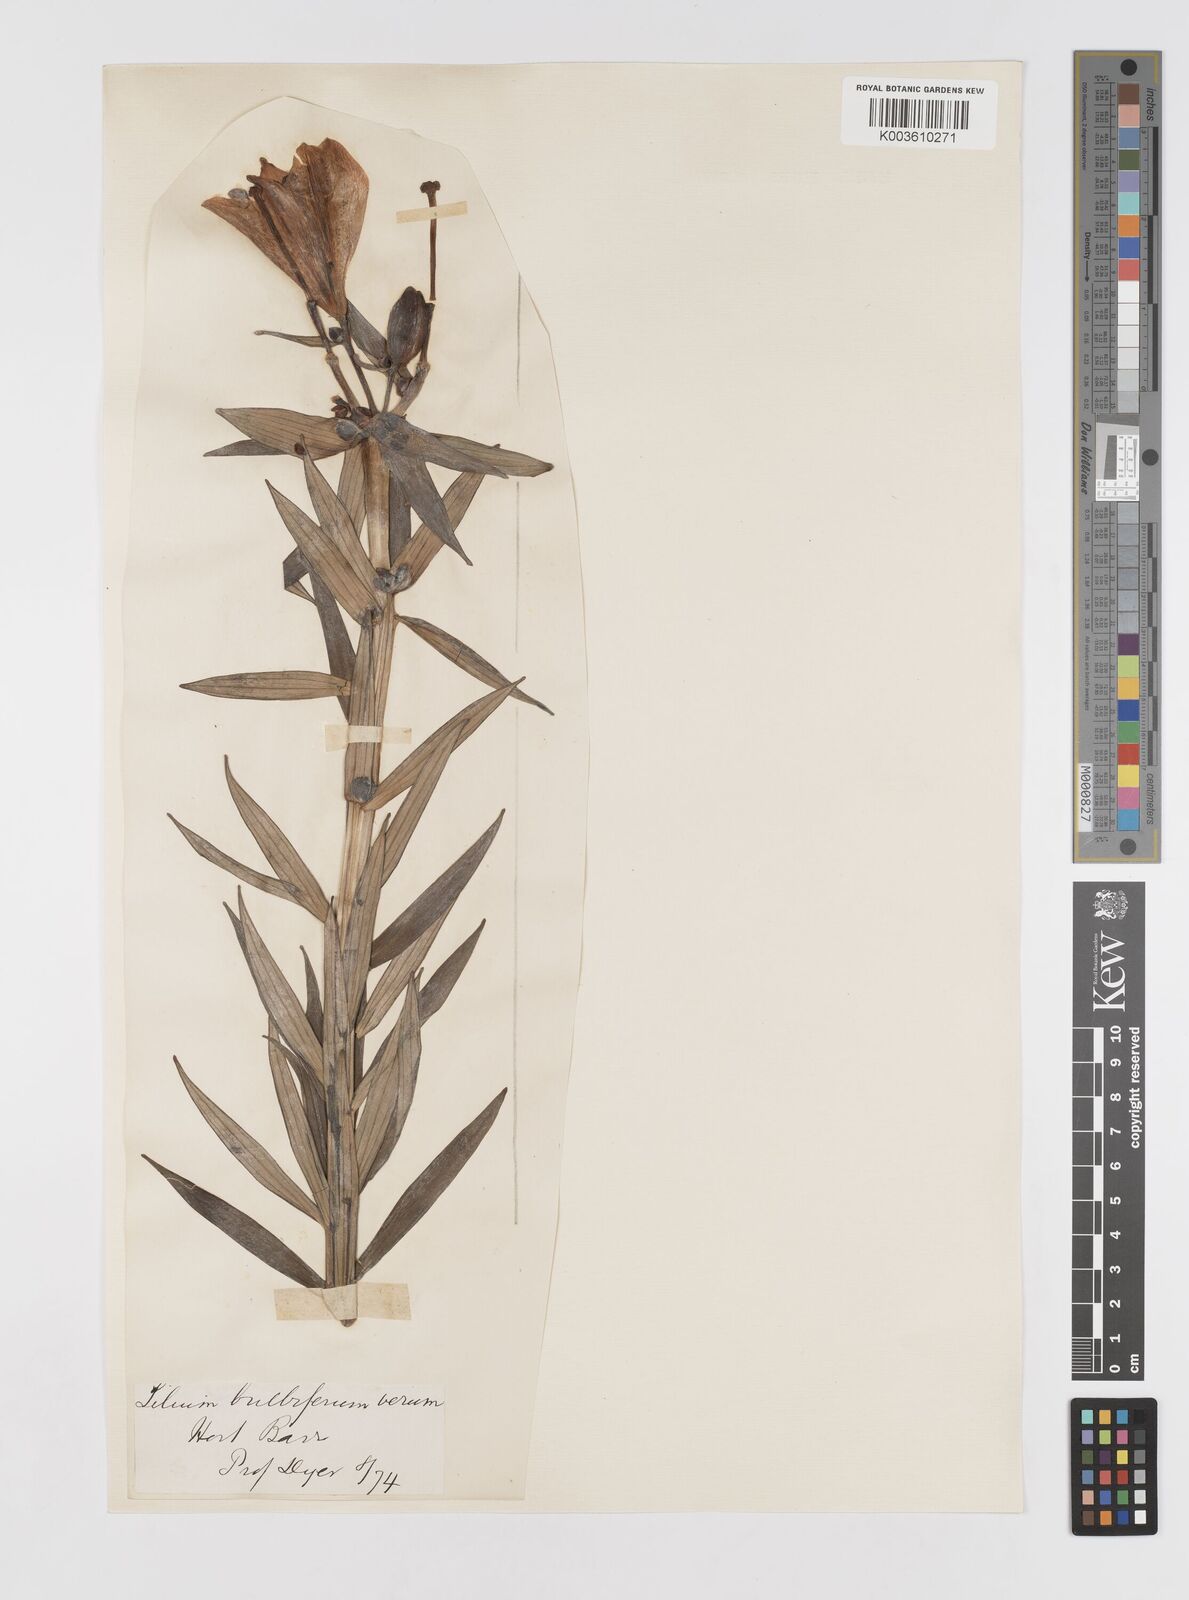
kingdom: Plantae
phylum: Tracheophyta
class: Liliopsida
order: Liliales
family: Liliaceae
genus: Lilium
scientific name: Lilium bulbiferum
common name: Orange lily
